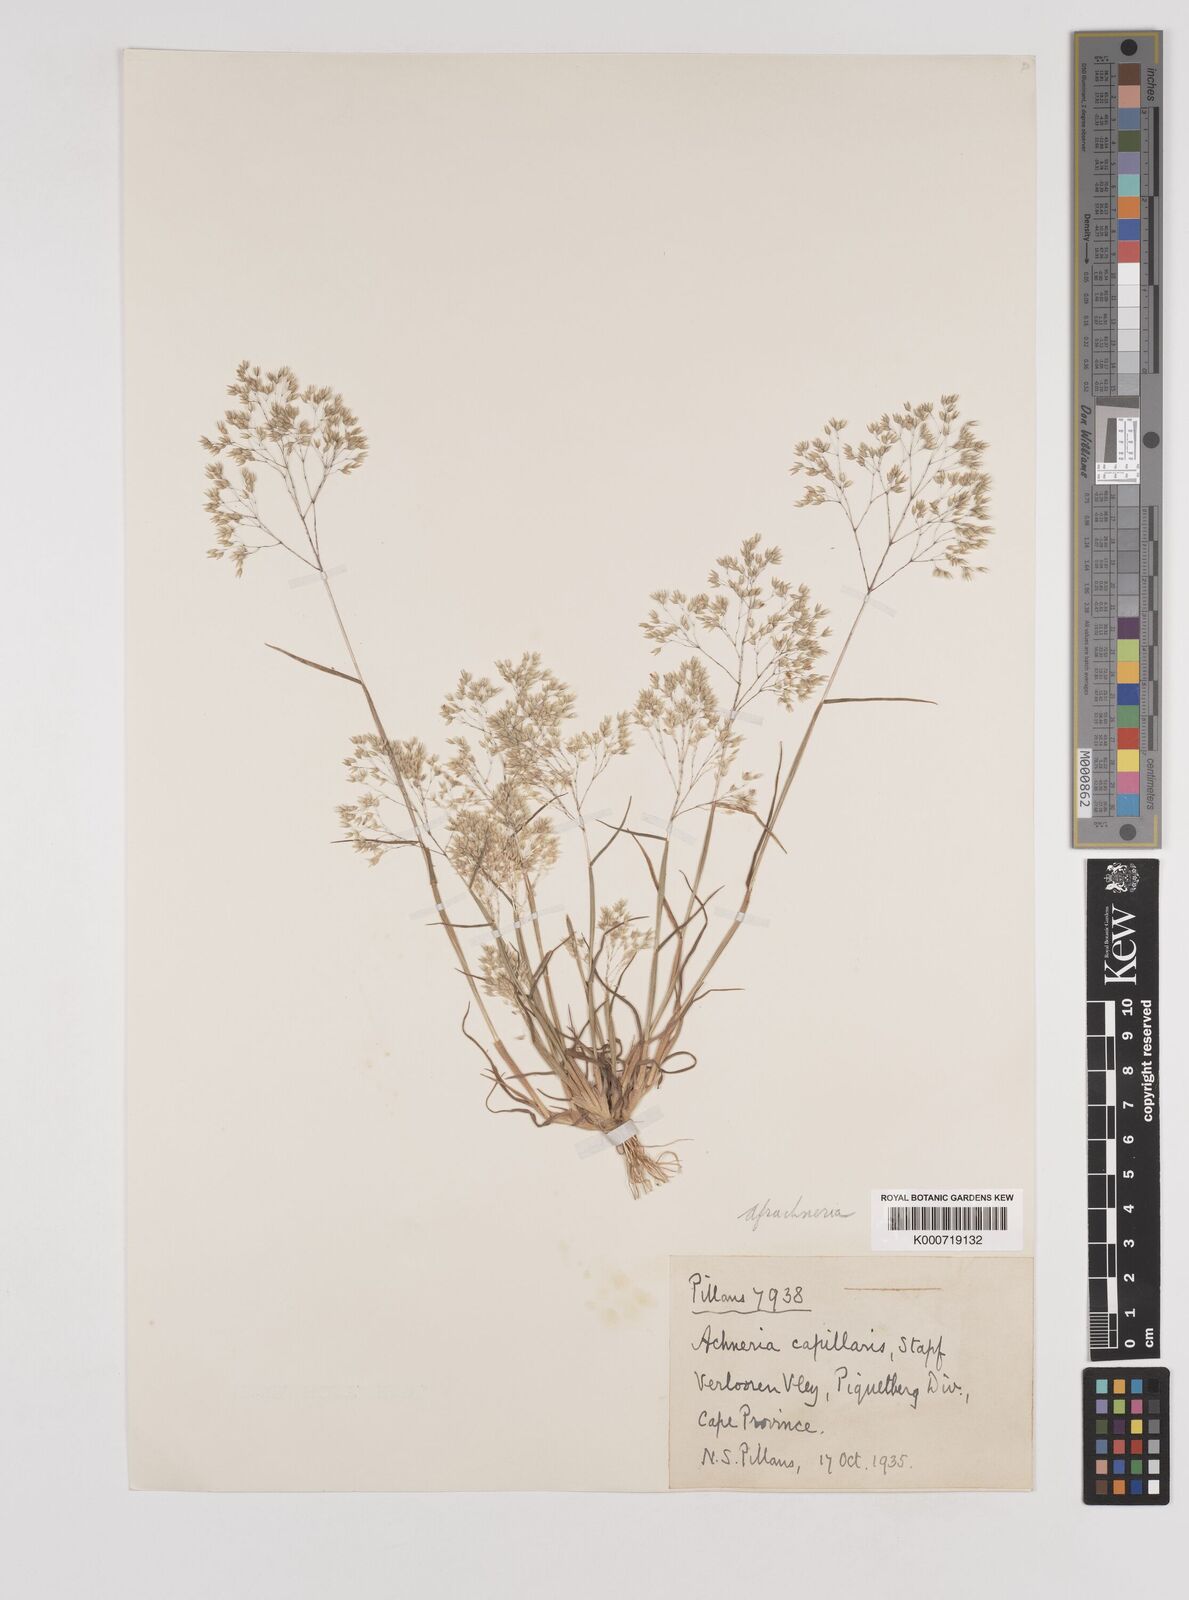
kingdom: Plantae
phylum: Tracheophyta
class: Liliopsida
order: Poales
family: Poaceae
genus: Pentameris
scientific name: Pentameris capillaris
